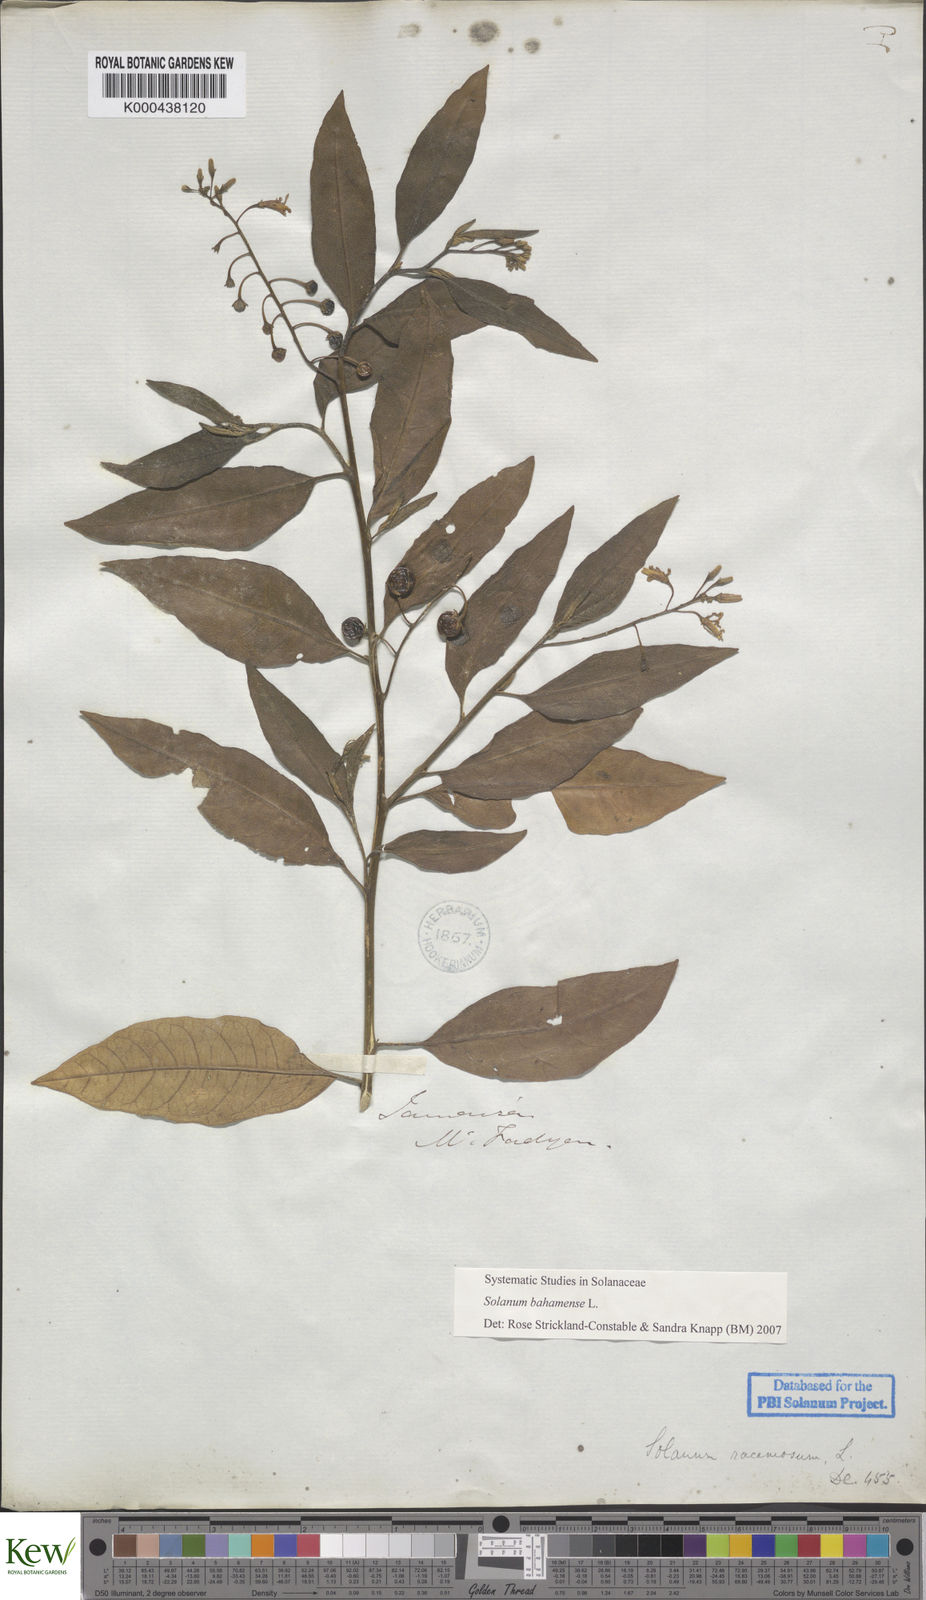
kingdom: Plantae
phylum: Tracheophyta
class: Magnoliopsida
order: Solanales
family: Solanaceae
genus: Solanum
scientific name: Solanum bahamense
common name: Canker-berry
